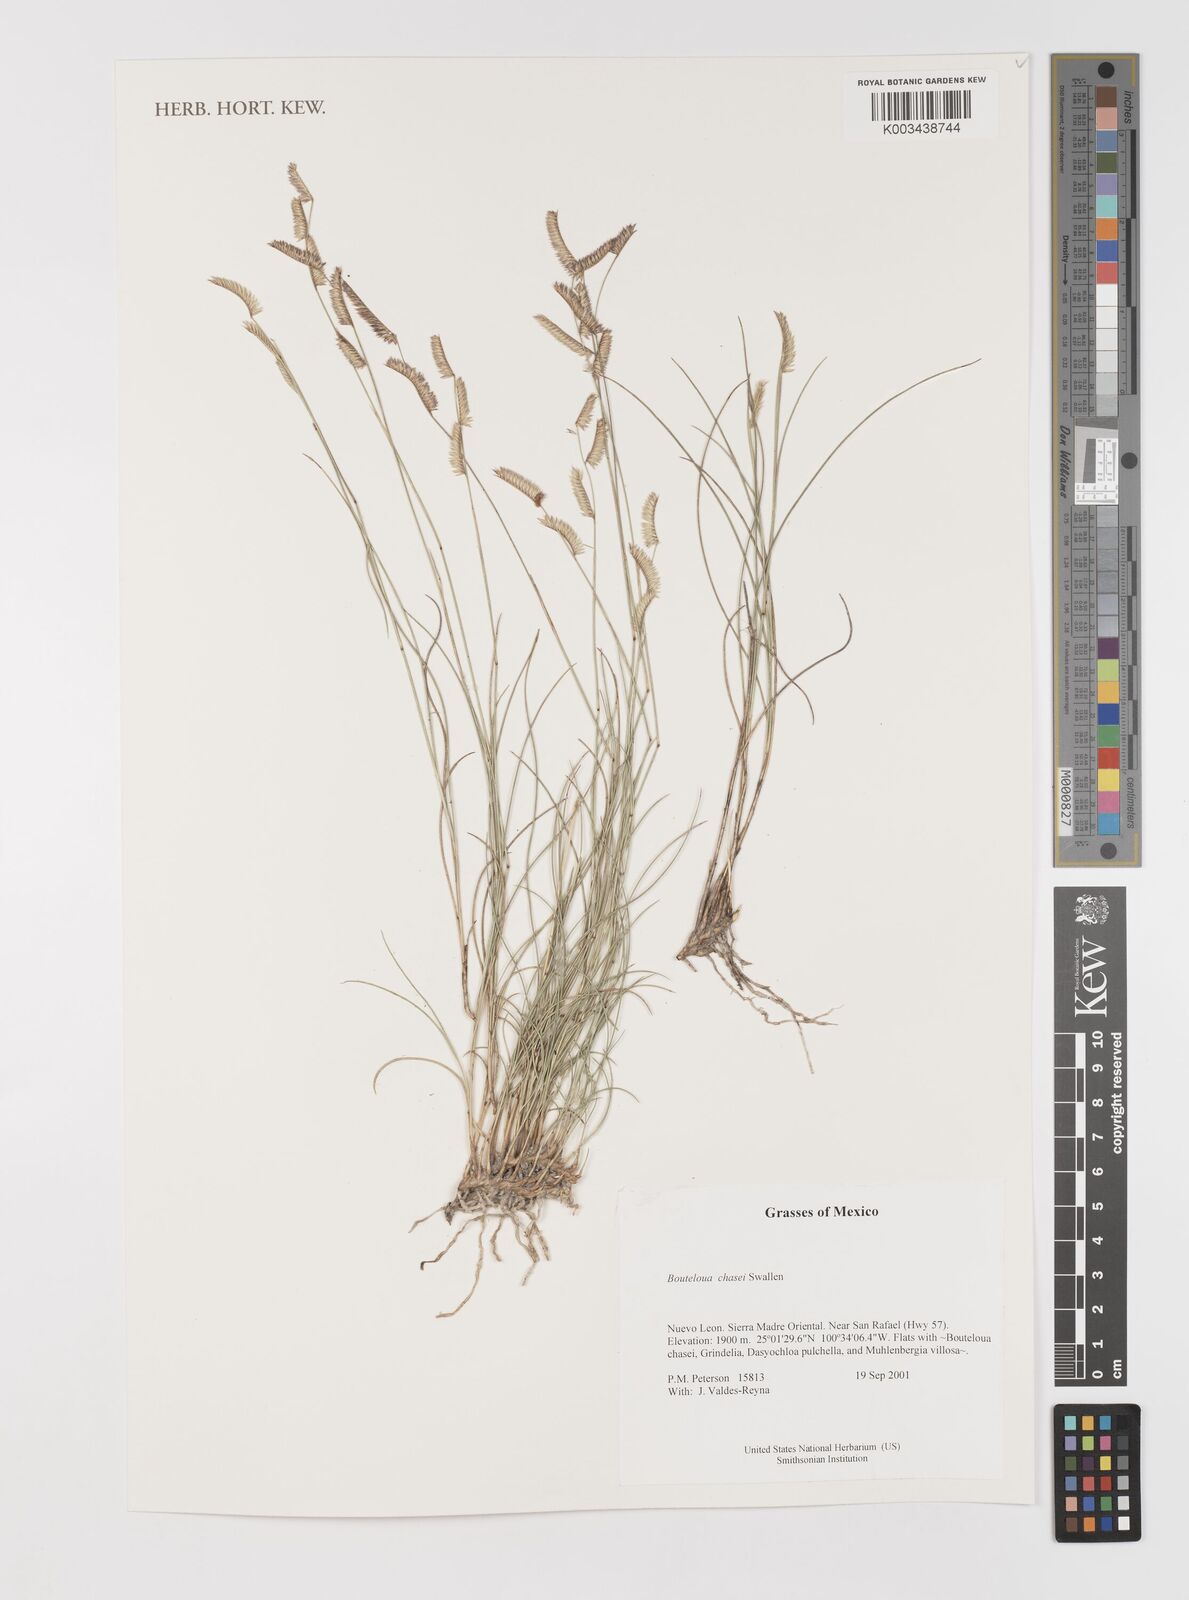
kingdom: Plantae
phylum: Tracheophyta
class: Liliopsida
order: Poales
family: Poaceae
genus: Bouteloua
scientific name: Bouteloua chasei
